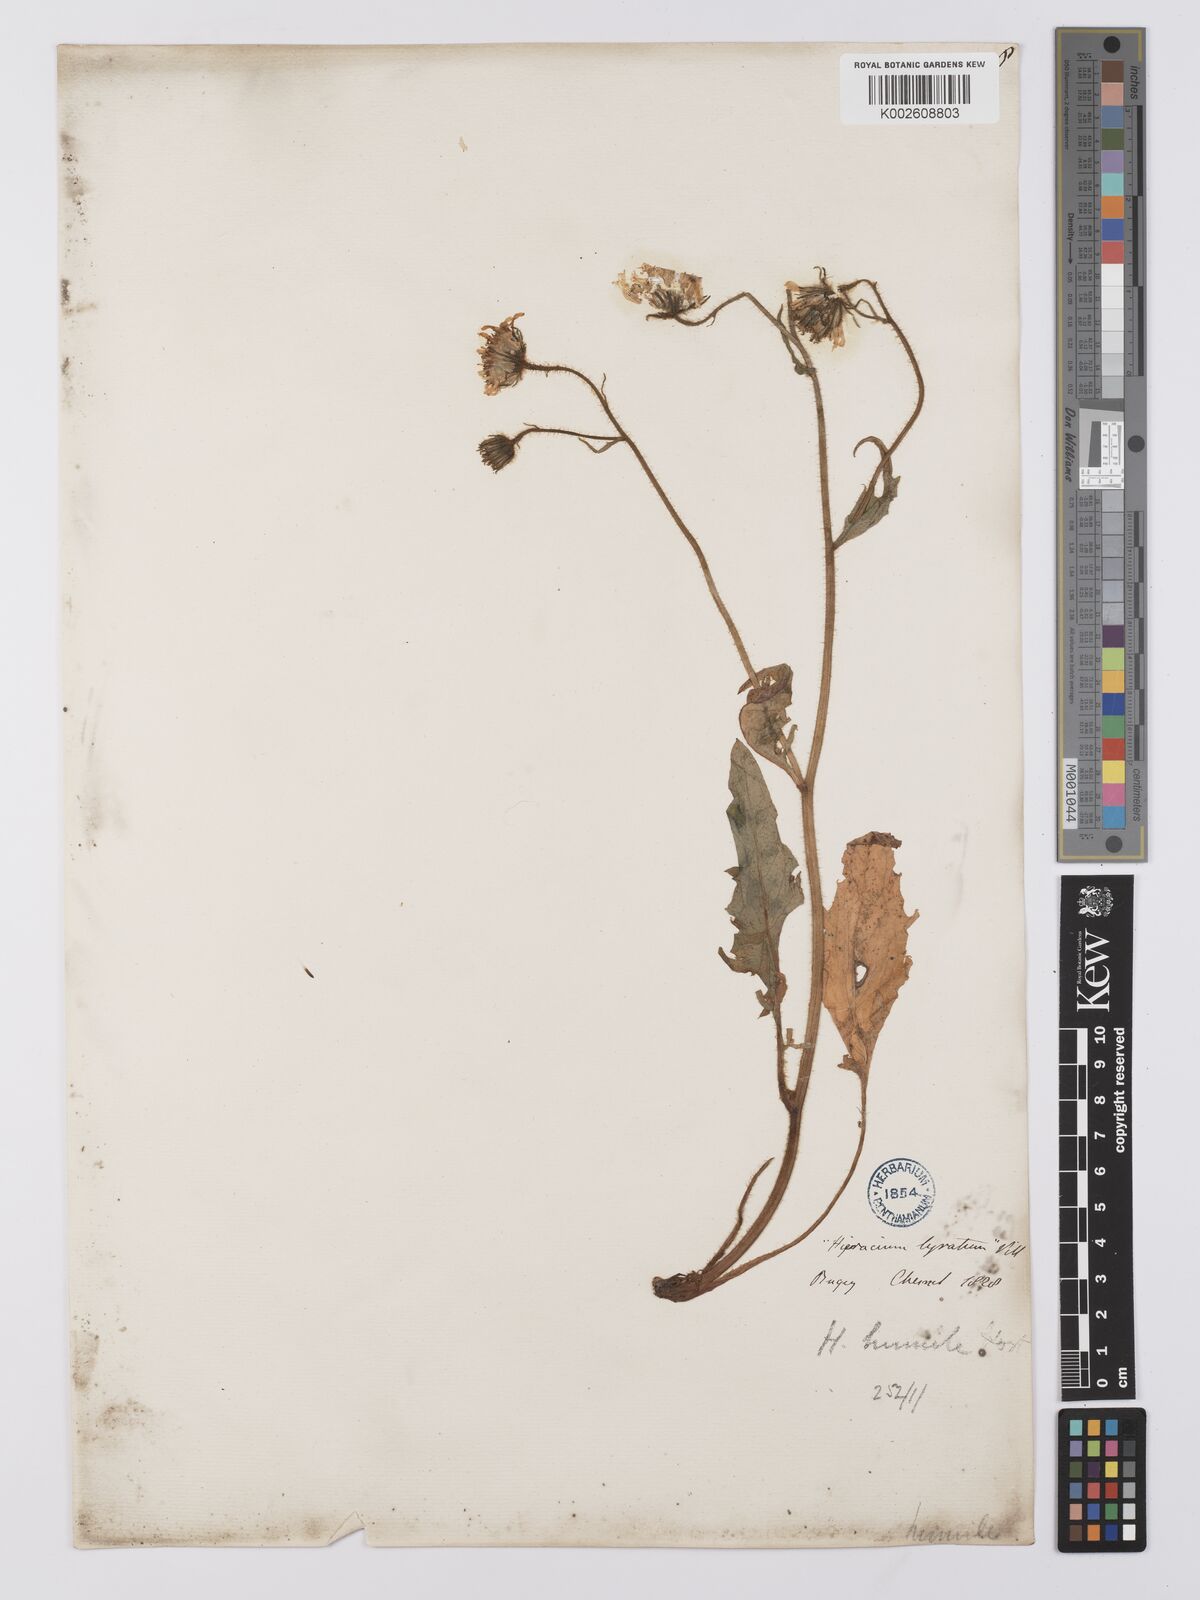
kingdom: Plantae
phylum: Tracheophyta
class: Magnoliopsida
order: Asterales
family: Asteraceae
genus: Hieracium
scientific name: Hieracium humile
